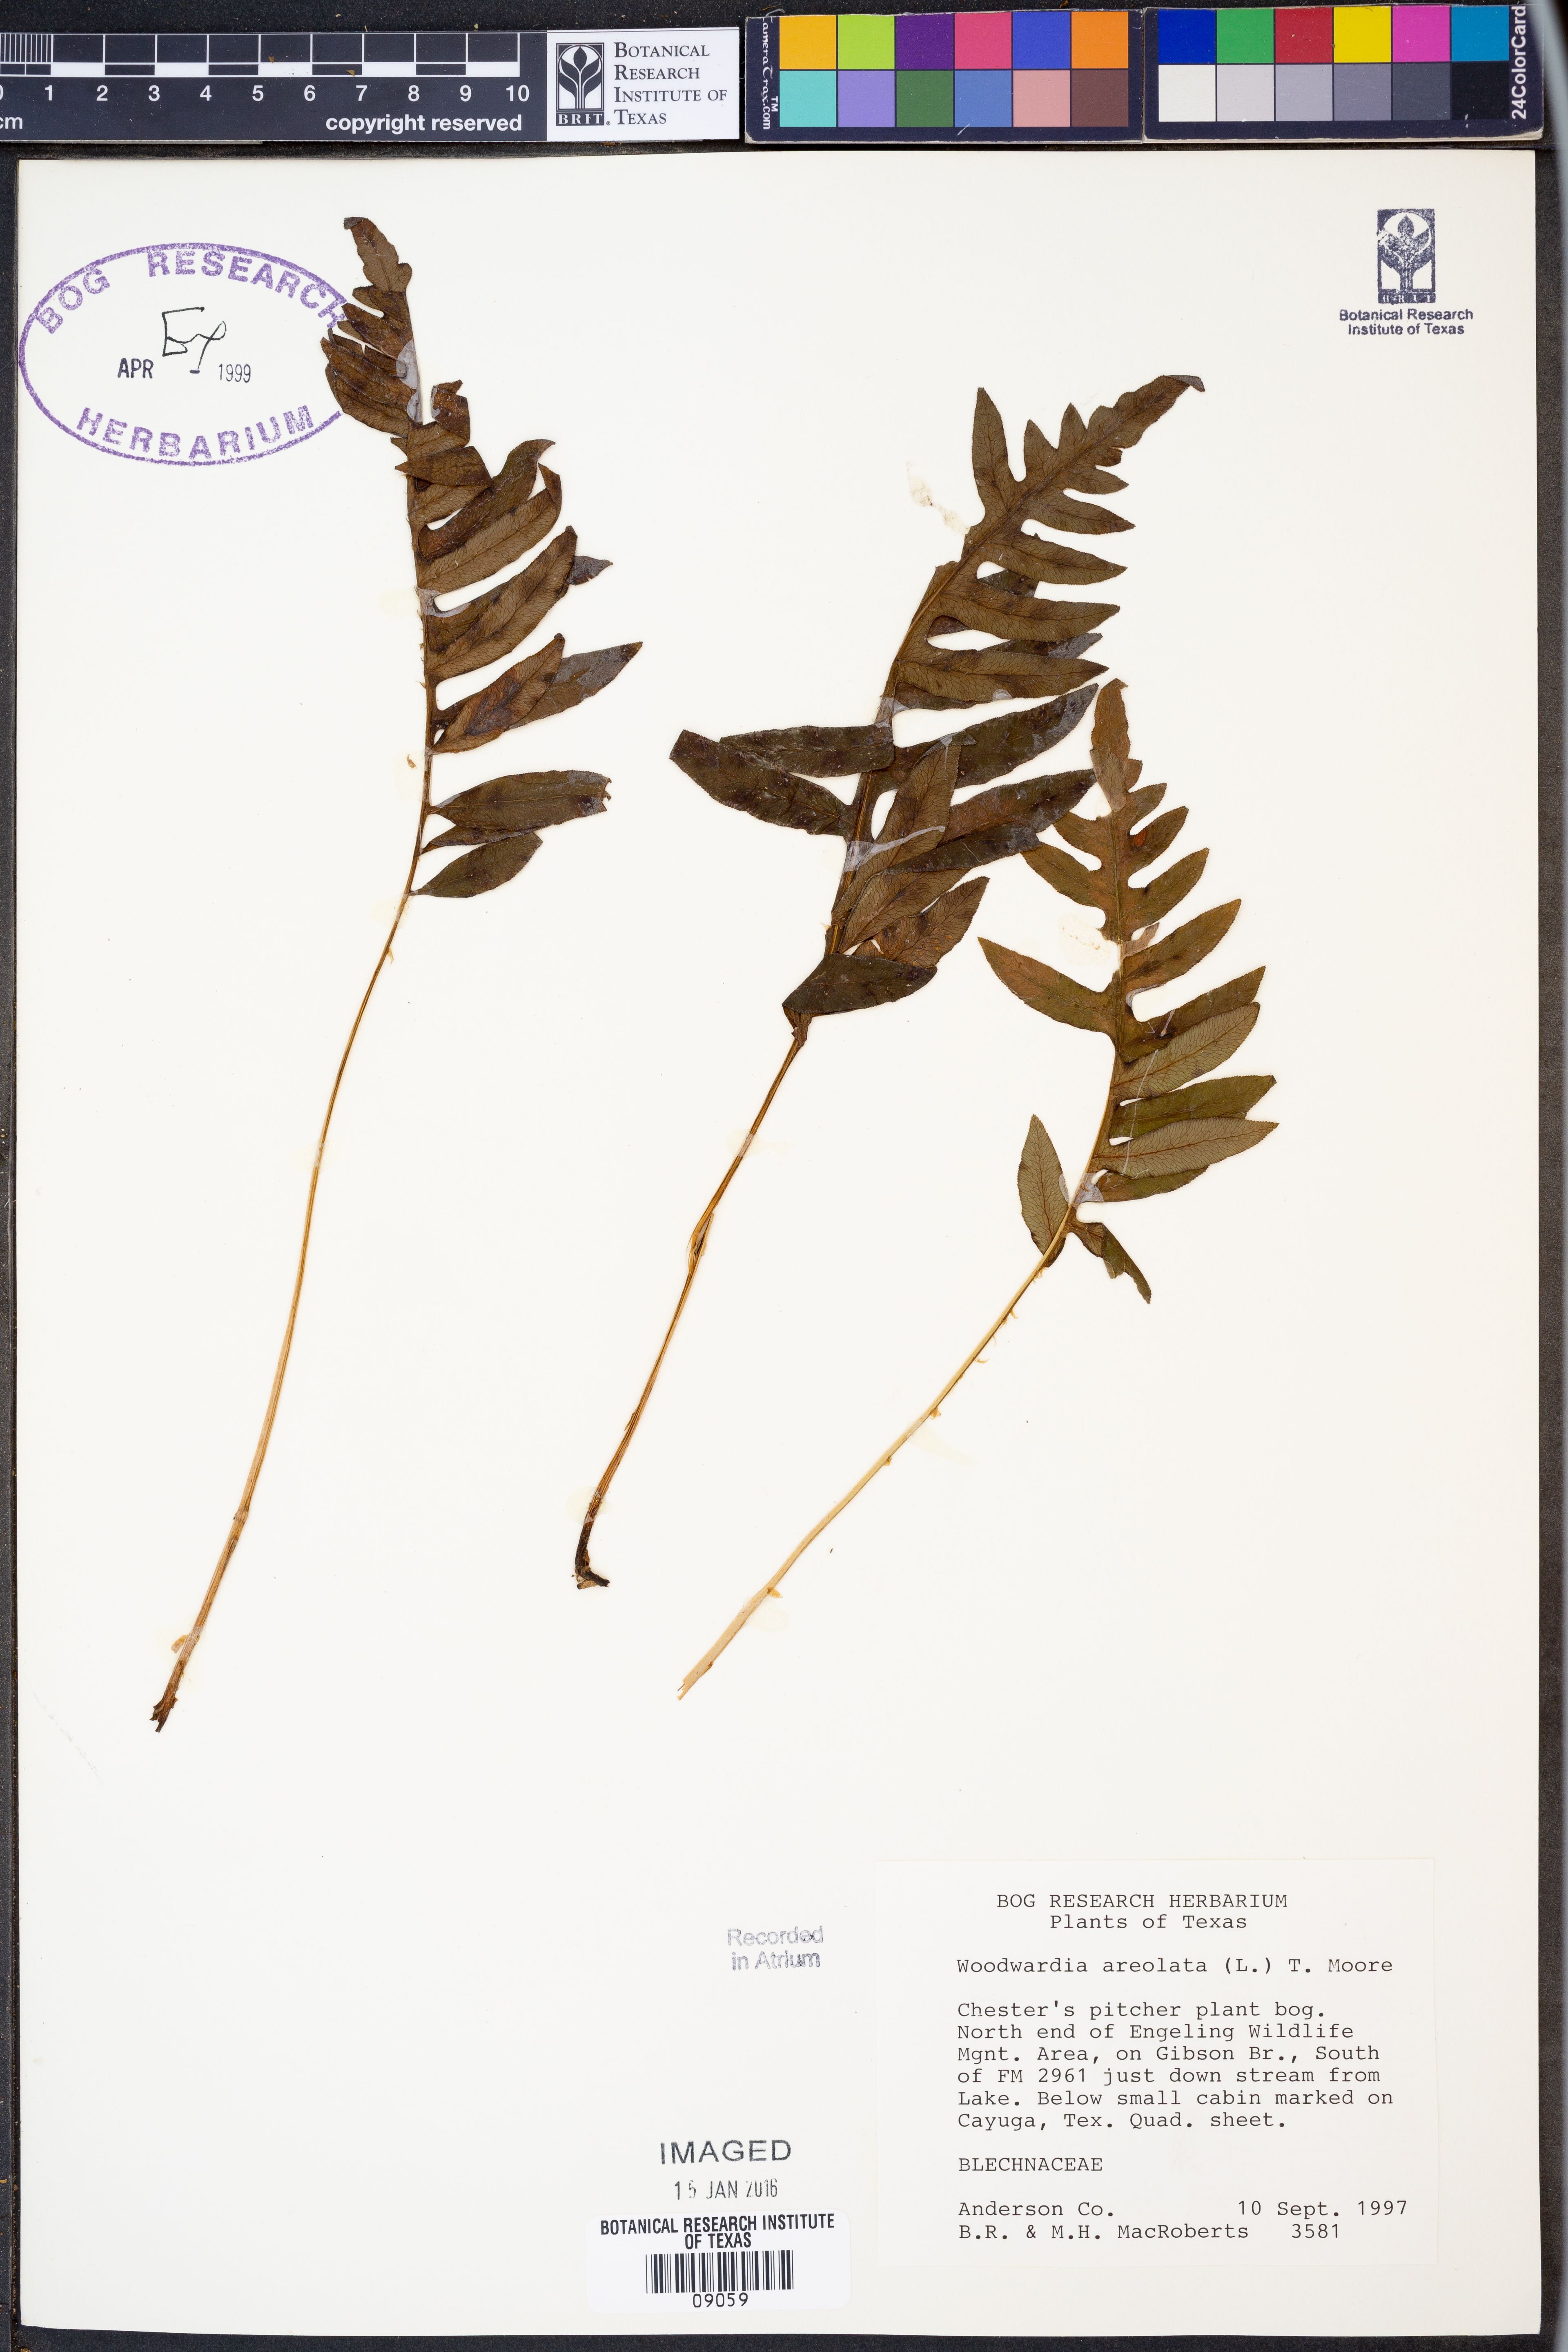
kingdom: Plantae
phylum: Tracheophyta
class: Polypodiopsida
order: Polypodiales
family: Blechnaceae
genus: Lorinseria
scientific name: Lorinseria areolata
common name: Dwarf chain fern
